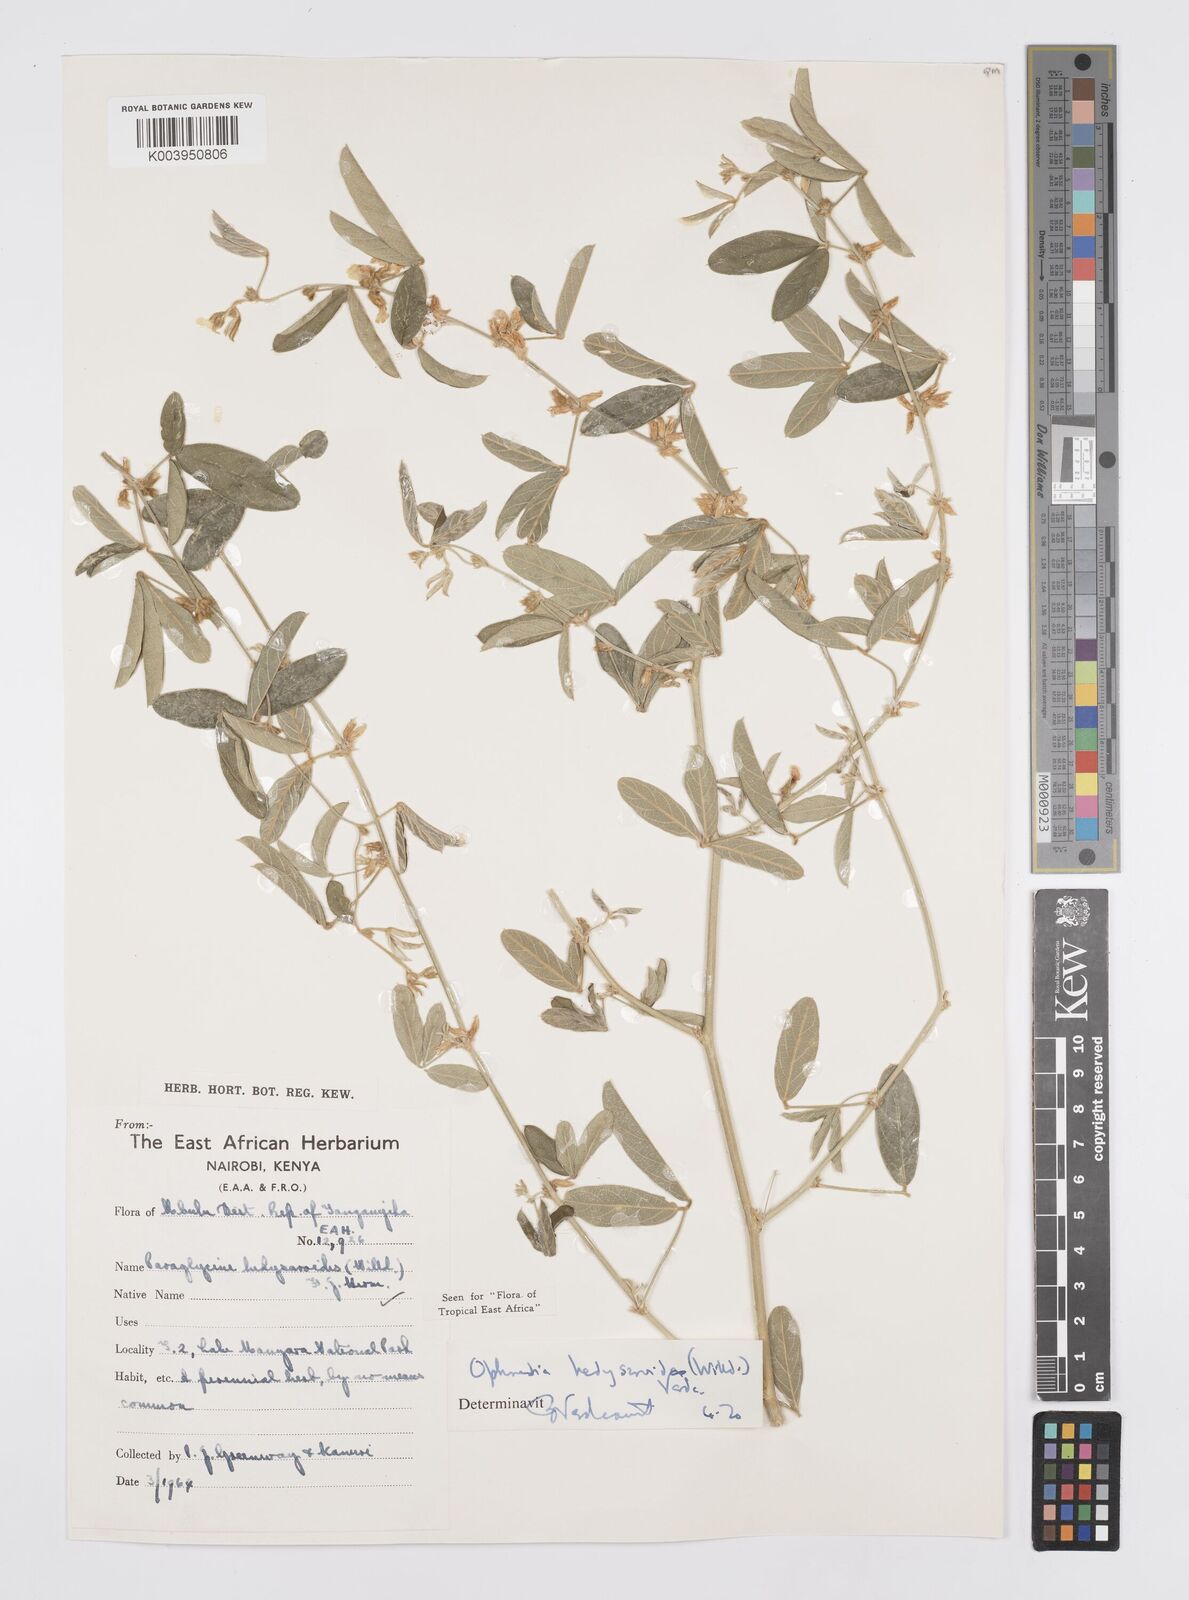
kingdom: Plantae
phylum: Tracheophyta
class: Magnoliopsida
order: Fabales
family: Fabaceae
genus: Ophrestia
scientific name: Ophrestia hedysaroides
